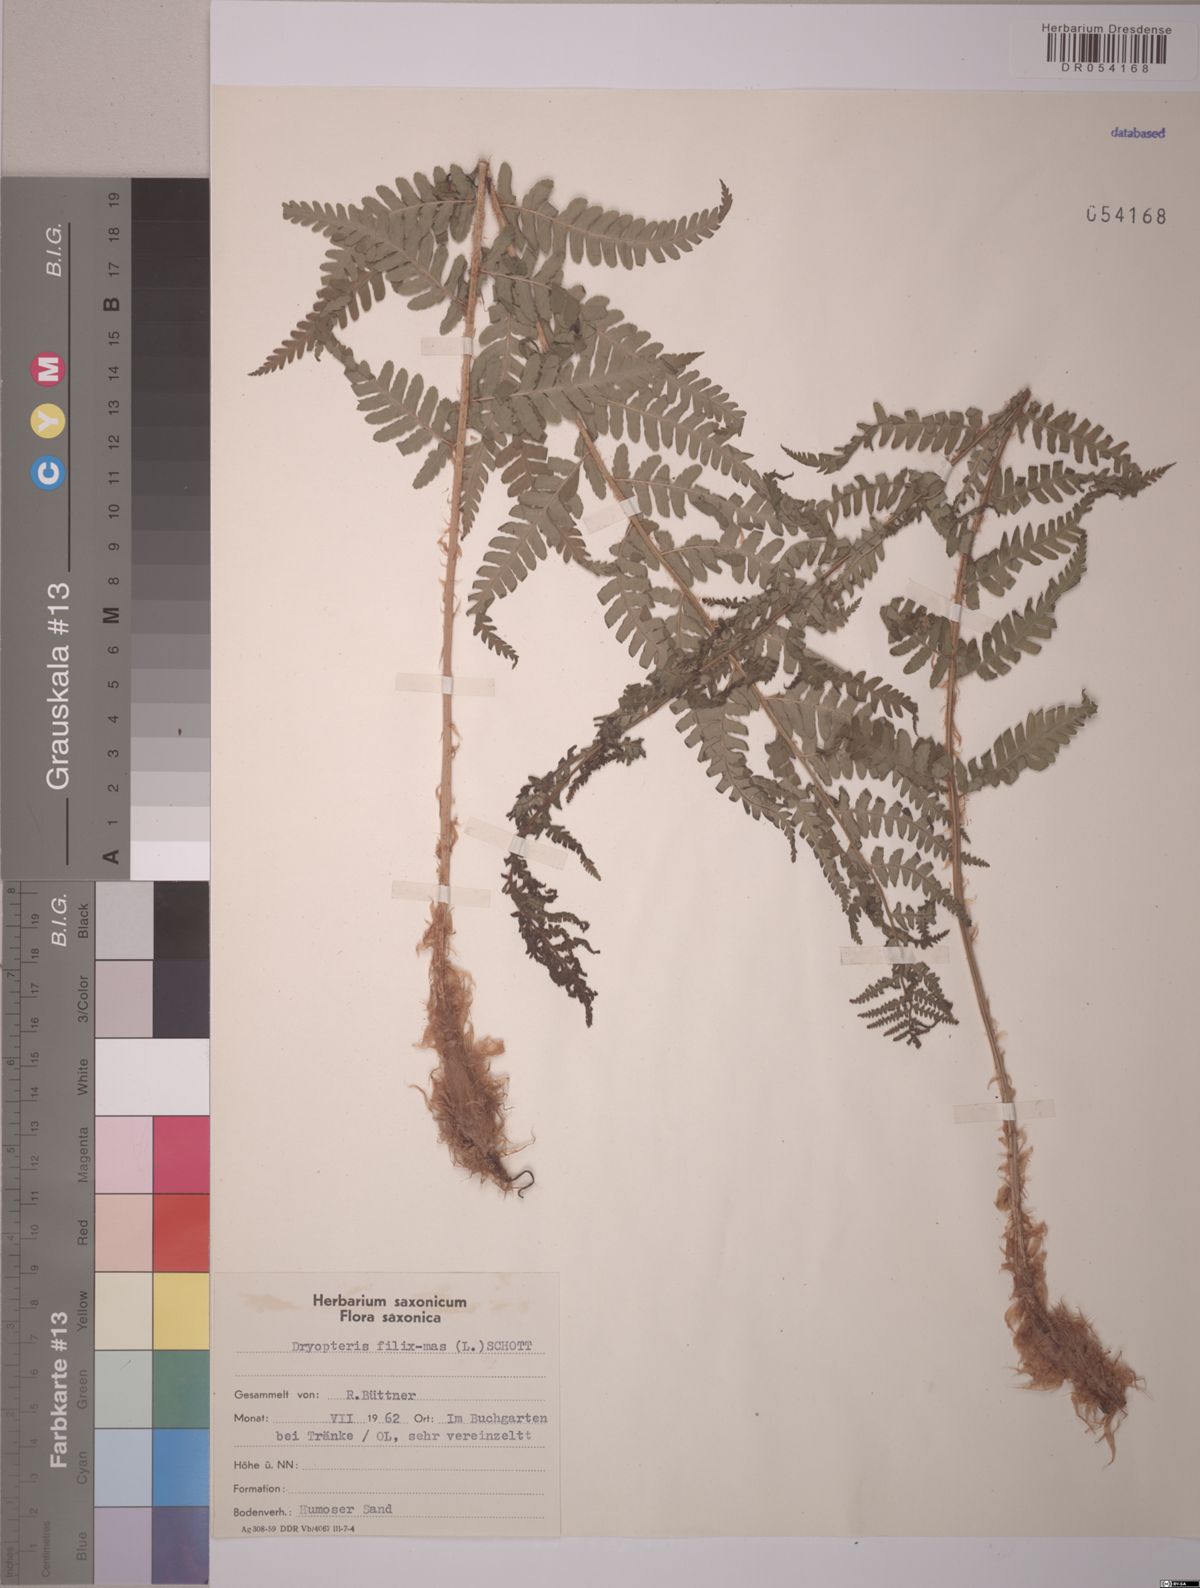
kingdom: Plantae
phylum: Tracheophyta
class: Polypodiopsida
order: Polypodiales
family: Dryopteridaceae
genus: Dryopteris
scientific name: Dryopteris filix-mas
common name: Male fern
